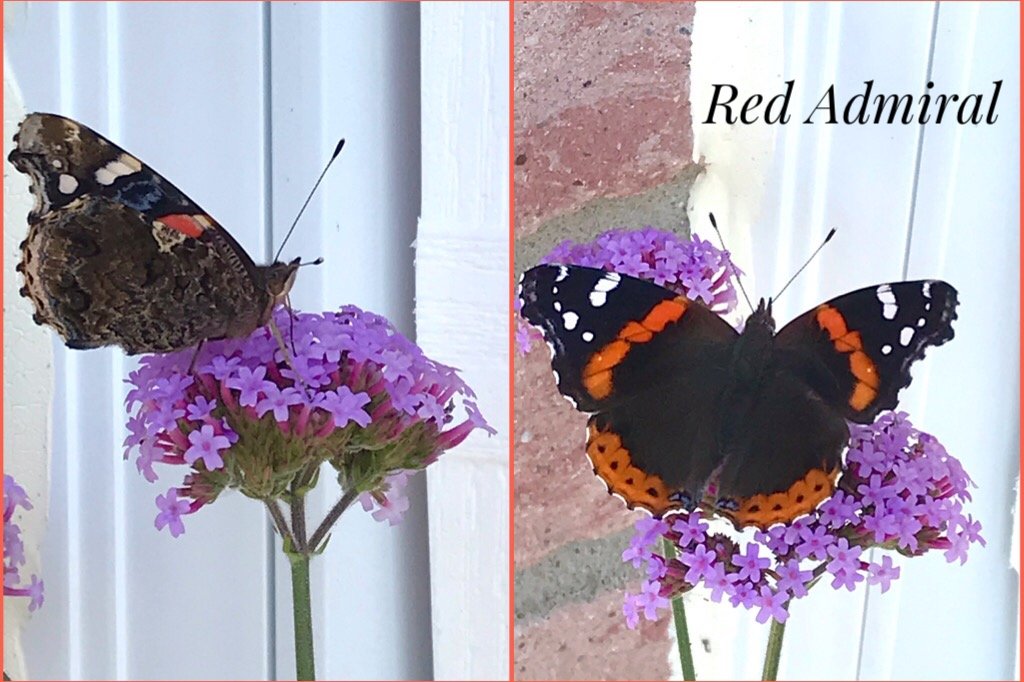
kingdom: Animalia
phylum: Arthropoda
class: Insecta
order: Lepidoptera
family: Nymphalidae
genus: Vanessa
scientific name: Vanessa atalanta
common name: Red Admiral
